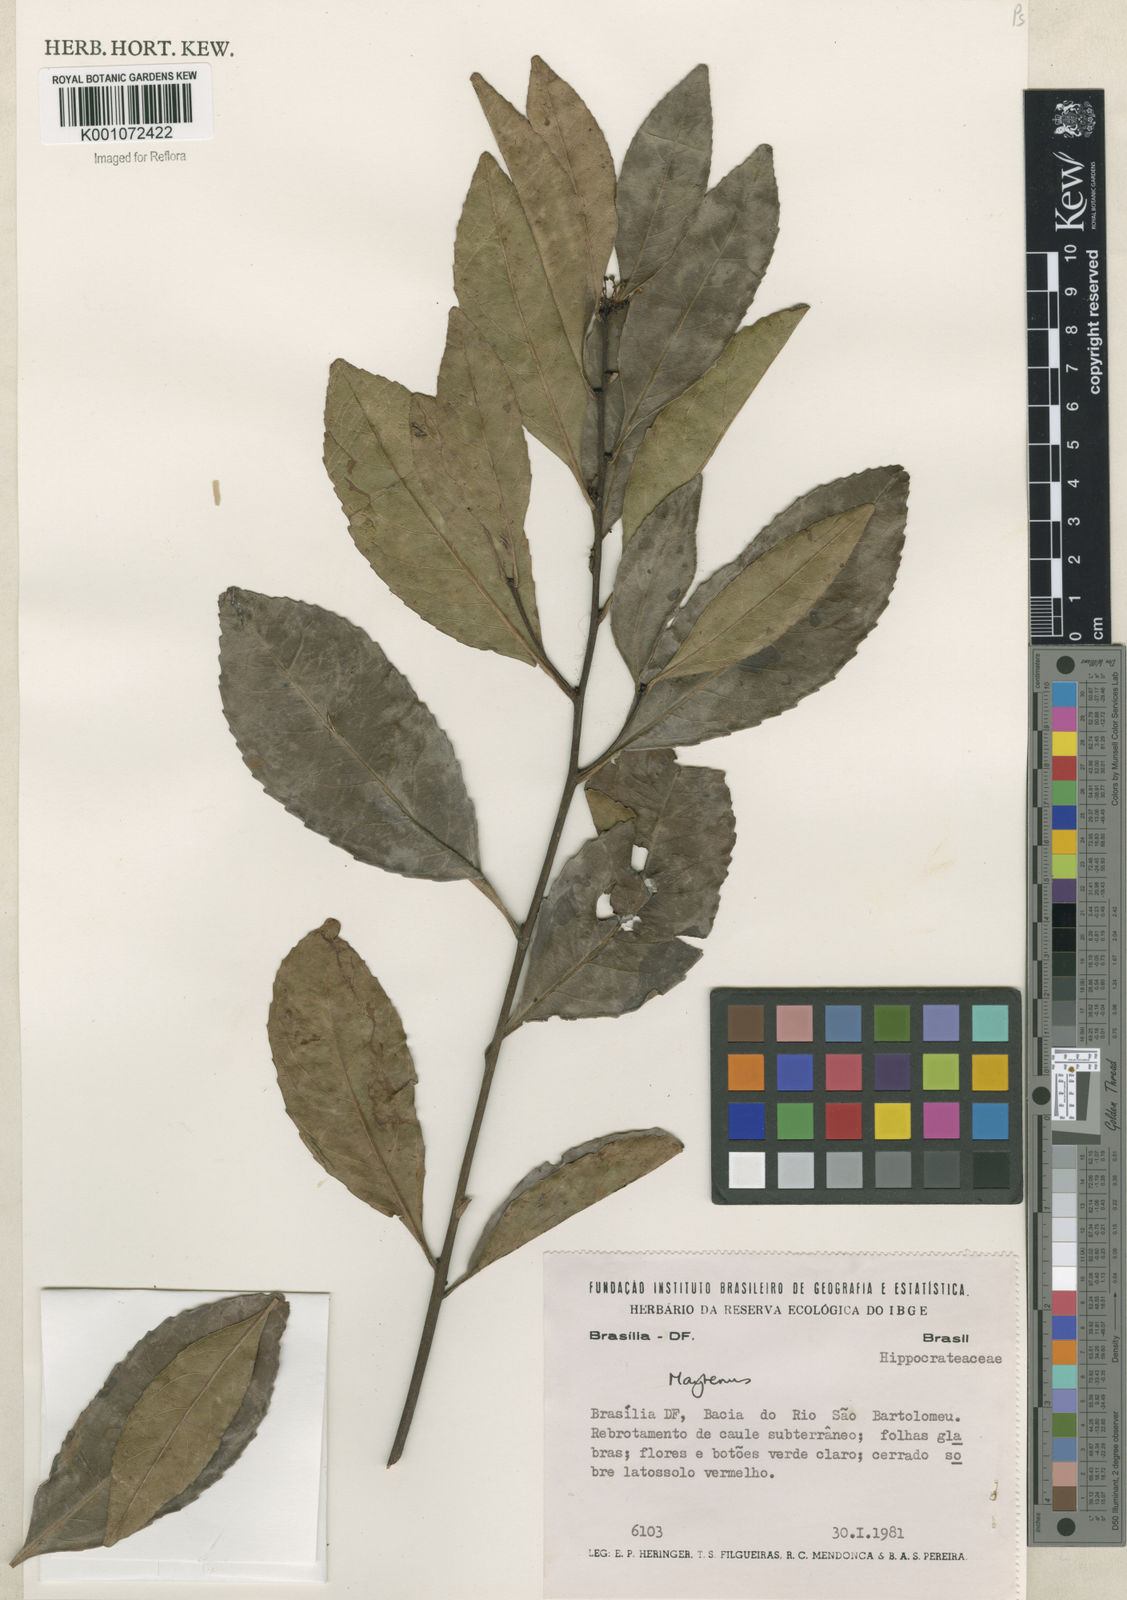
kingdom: Plantae
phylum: Tracheophyta
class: Magnoliopsida
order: Celastrales
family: Celastraceae
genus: Maytenus
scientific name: Maytenus
